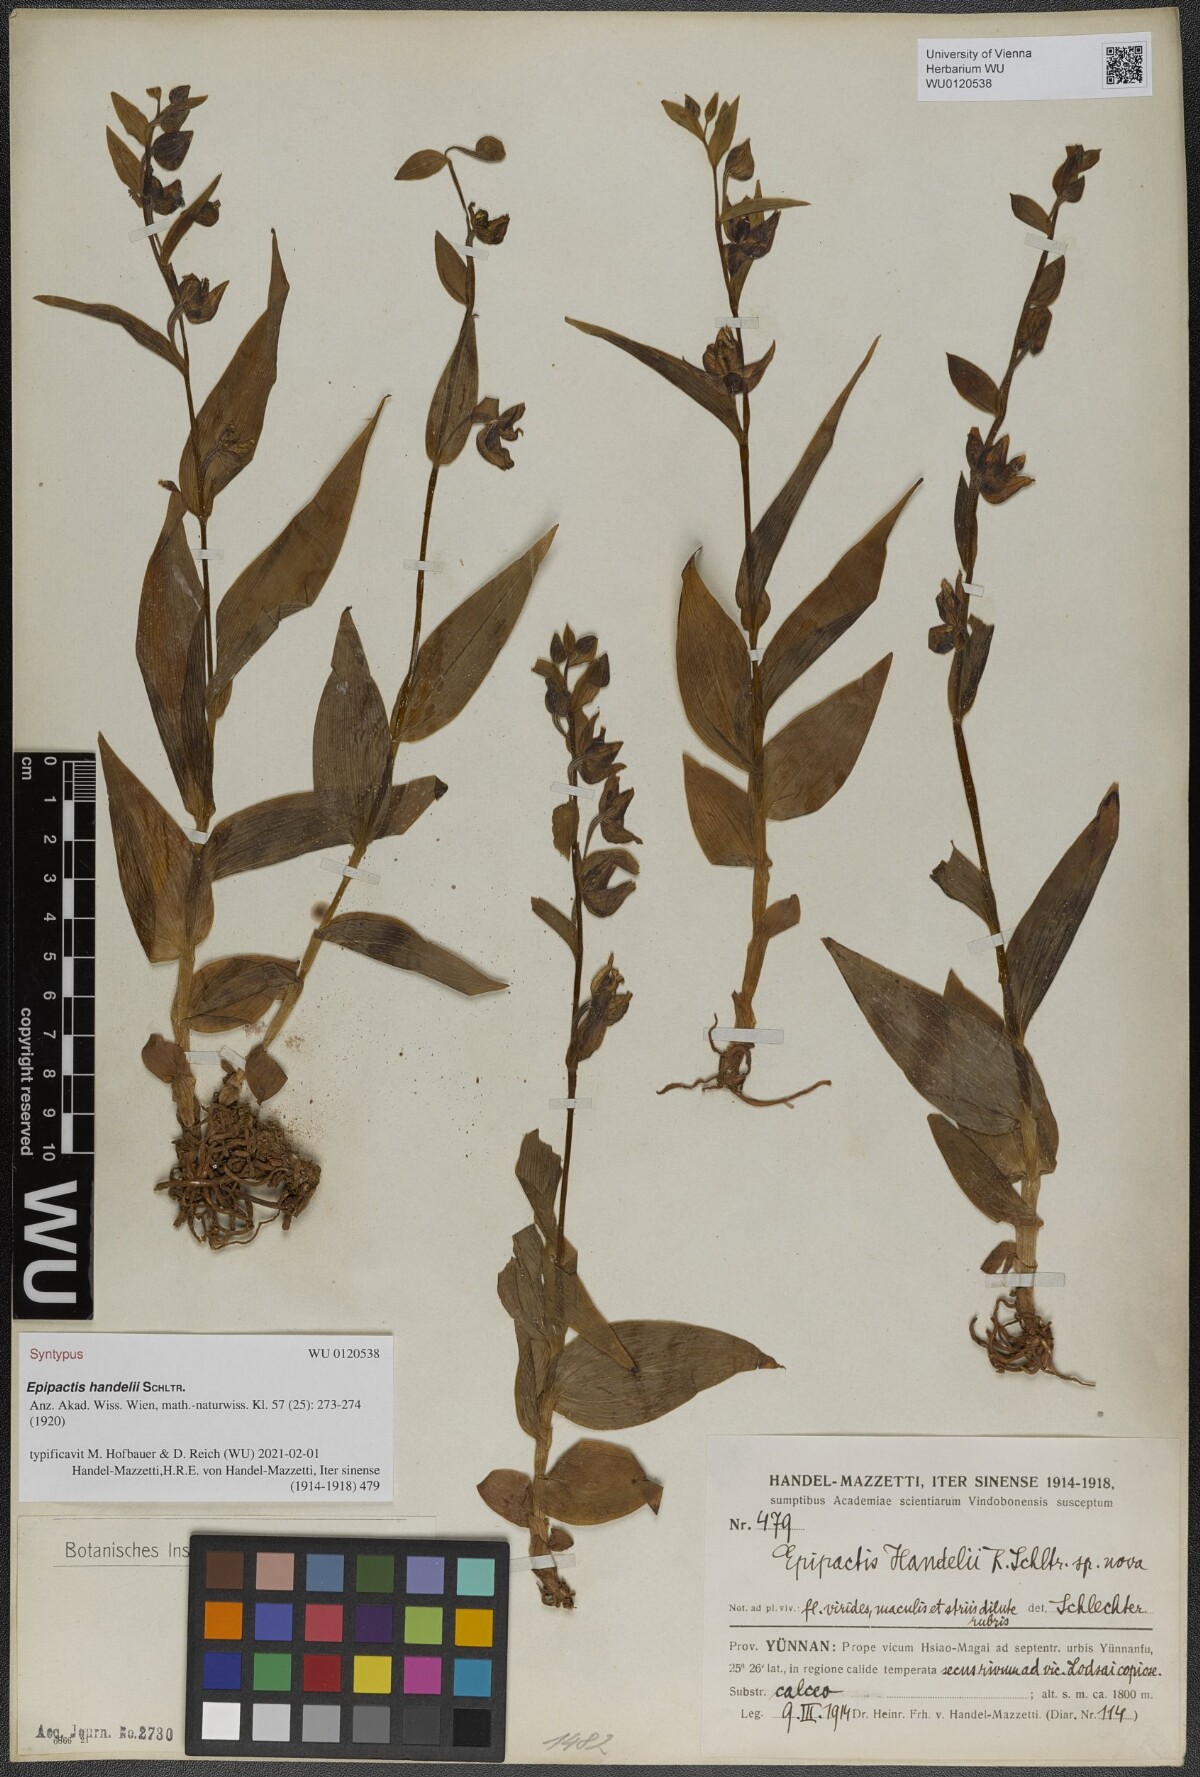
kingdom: Plantae
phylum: Tracheophyta
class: Liliopsida
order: Asparagales
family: Orchidaceae
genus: Epipactis
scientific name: Epipactis veratrifolia
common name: Eastern marsh helleborine
